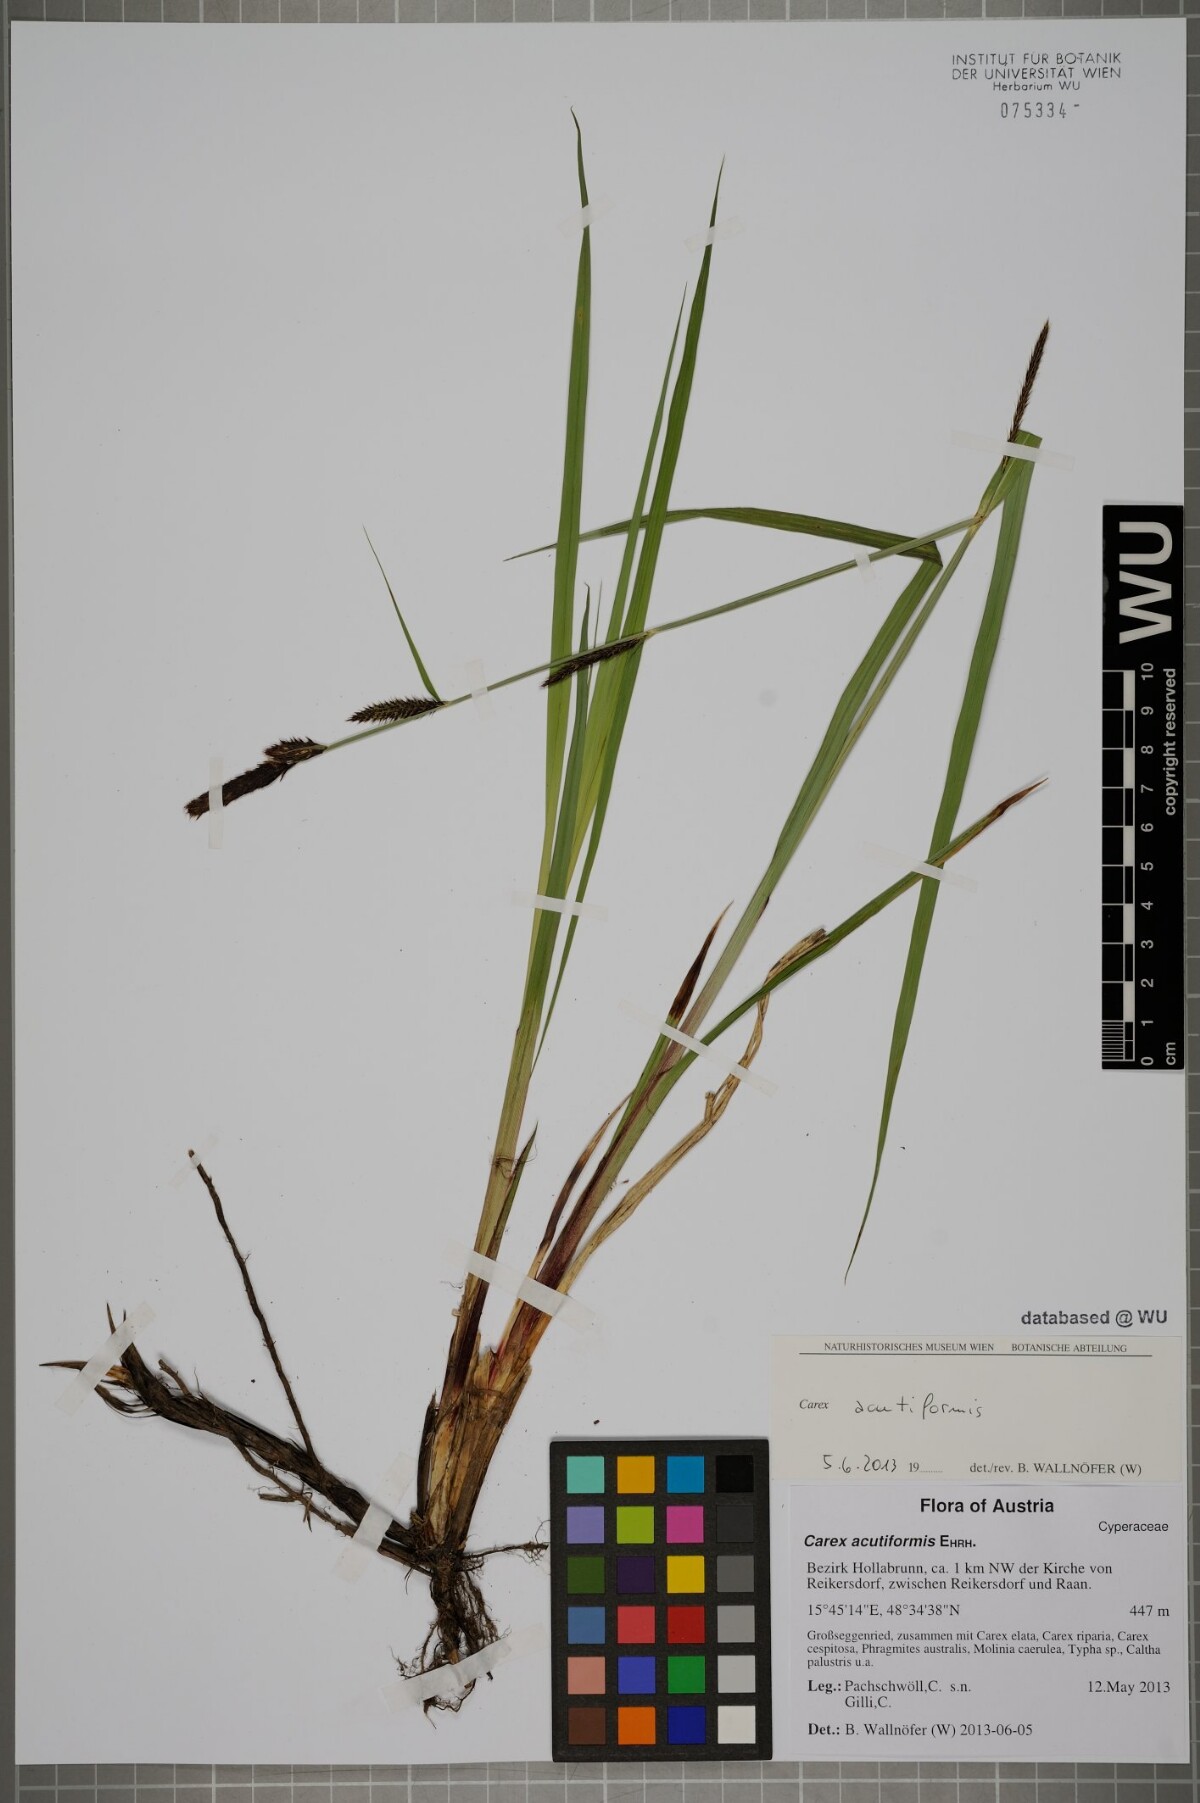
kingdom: Plantae
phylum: Tracheophyta
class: Liliopsida
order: Poales
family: Cyperaceae
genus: Carex
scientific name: Carex acutiformis
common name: Lesser pond-sedge
